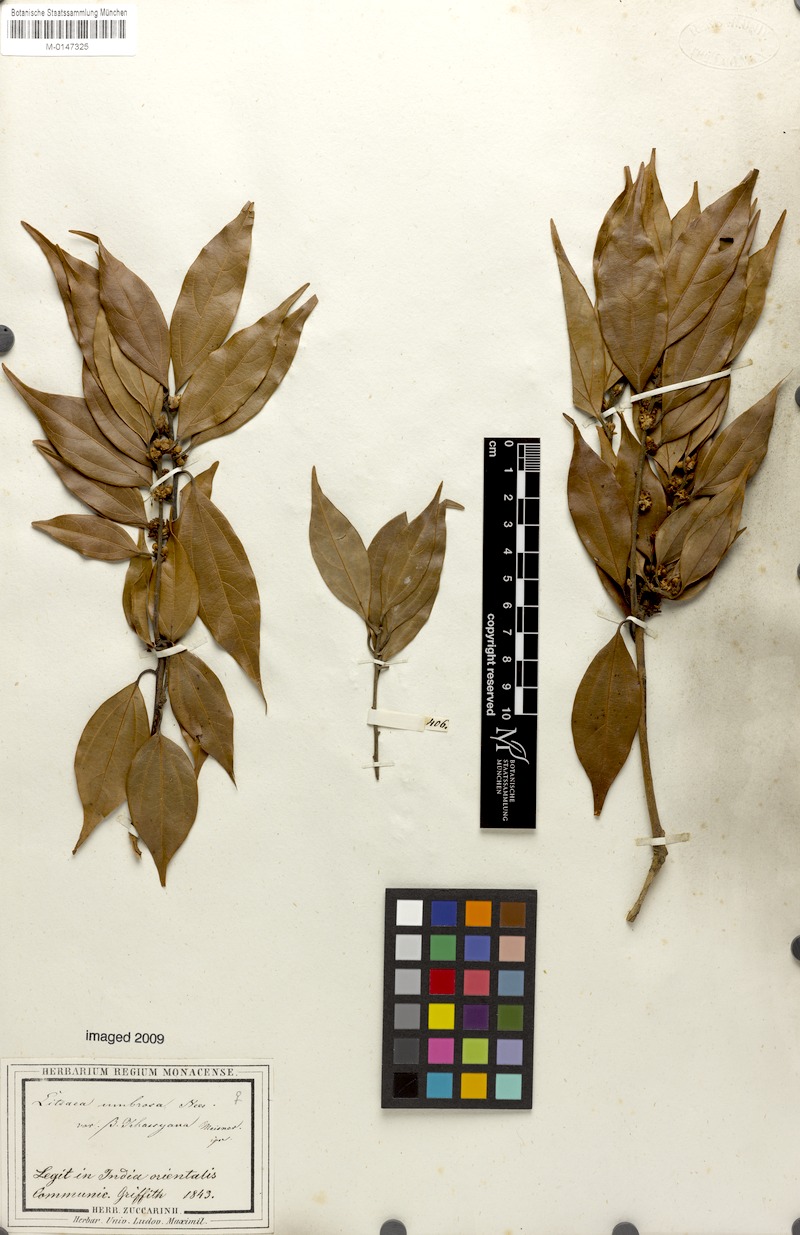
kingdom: Plantae
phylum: Tracheophyta
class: Magnoliopsida
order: Laurales
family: Lauraceae
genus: Neolitsea
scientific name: Neolitsea umbrosa
